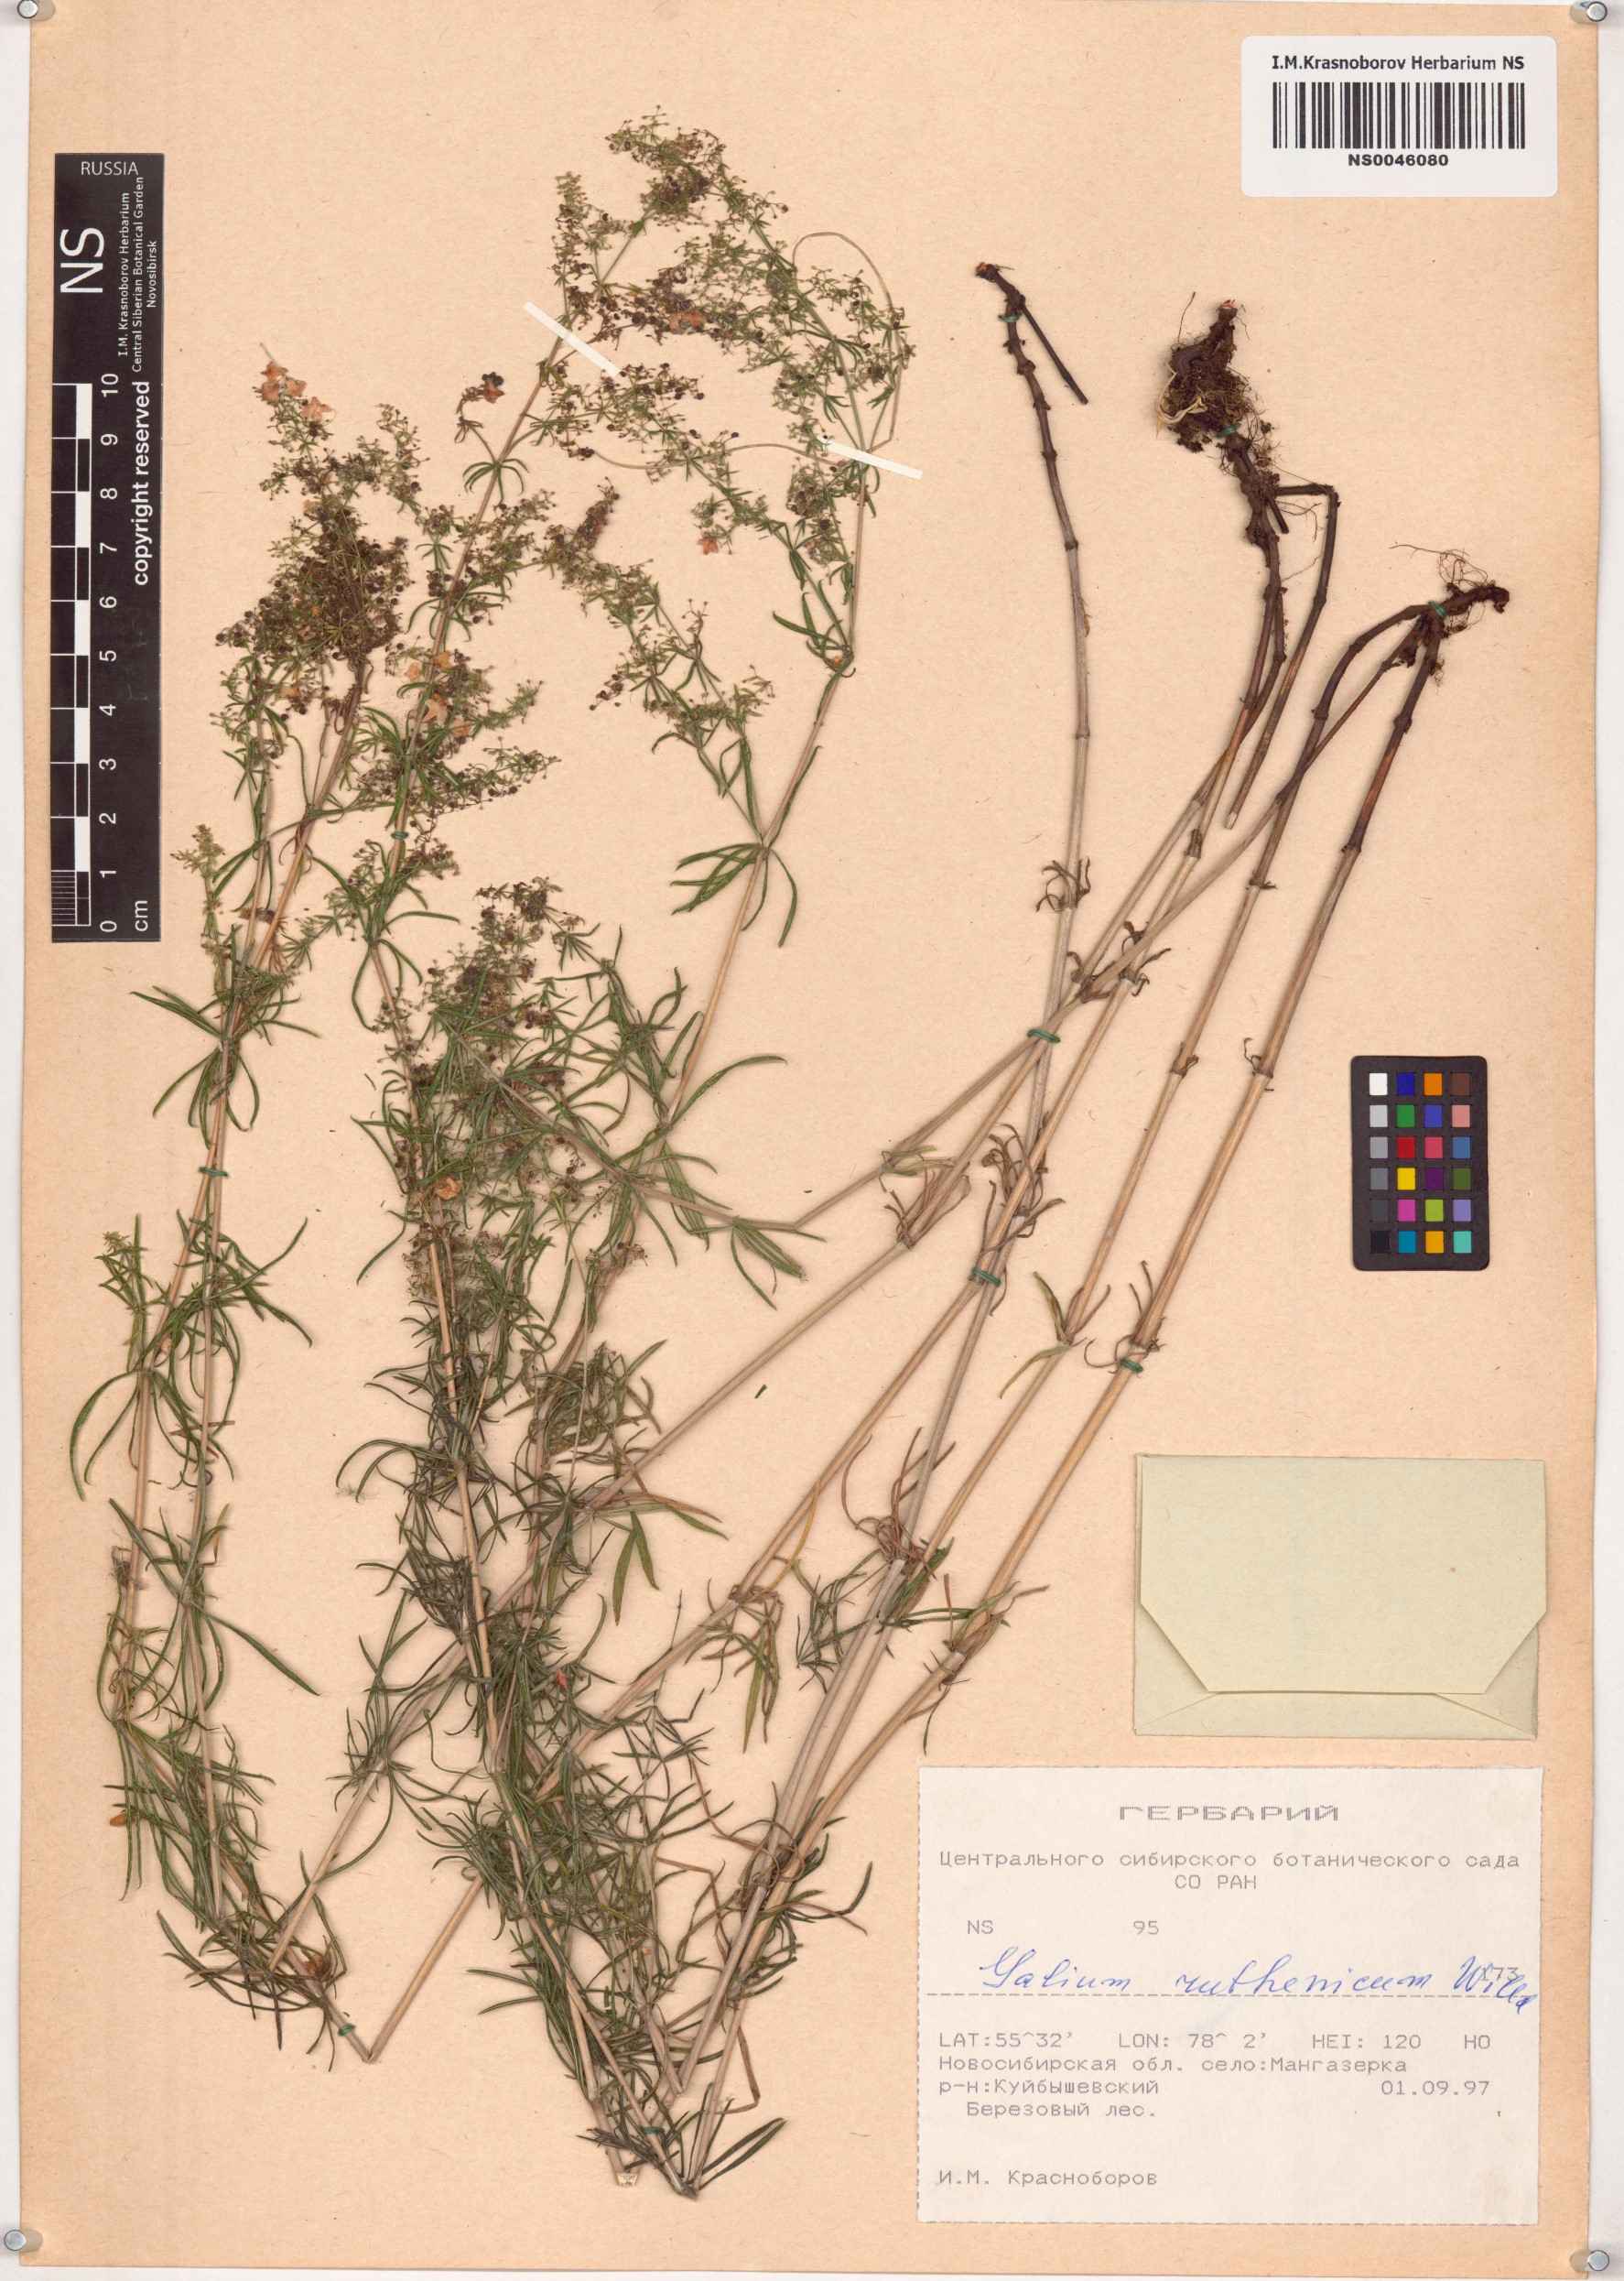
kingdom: Plantae
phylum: Tracheophyta
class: Magnoliopsida
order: Gentianales
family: Rubiaceae
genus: Galium
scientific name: Galium verum
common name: Lady's bedstraw
